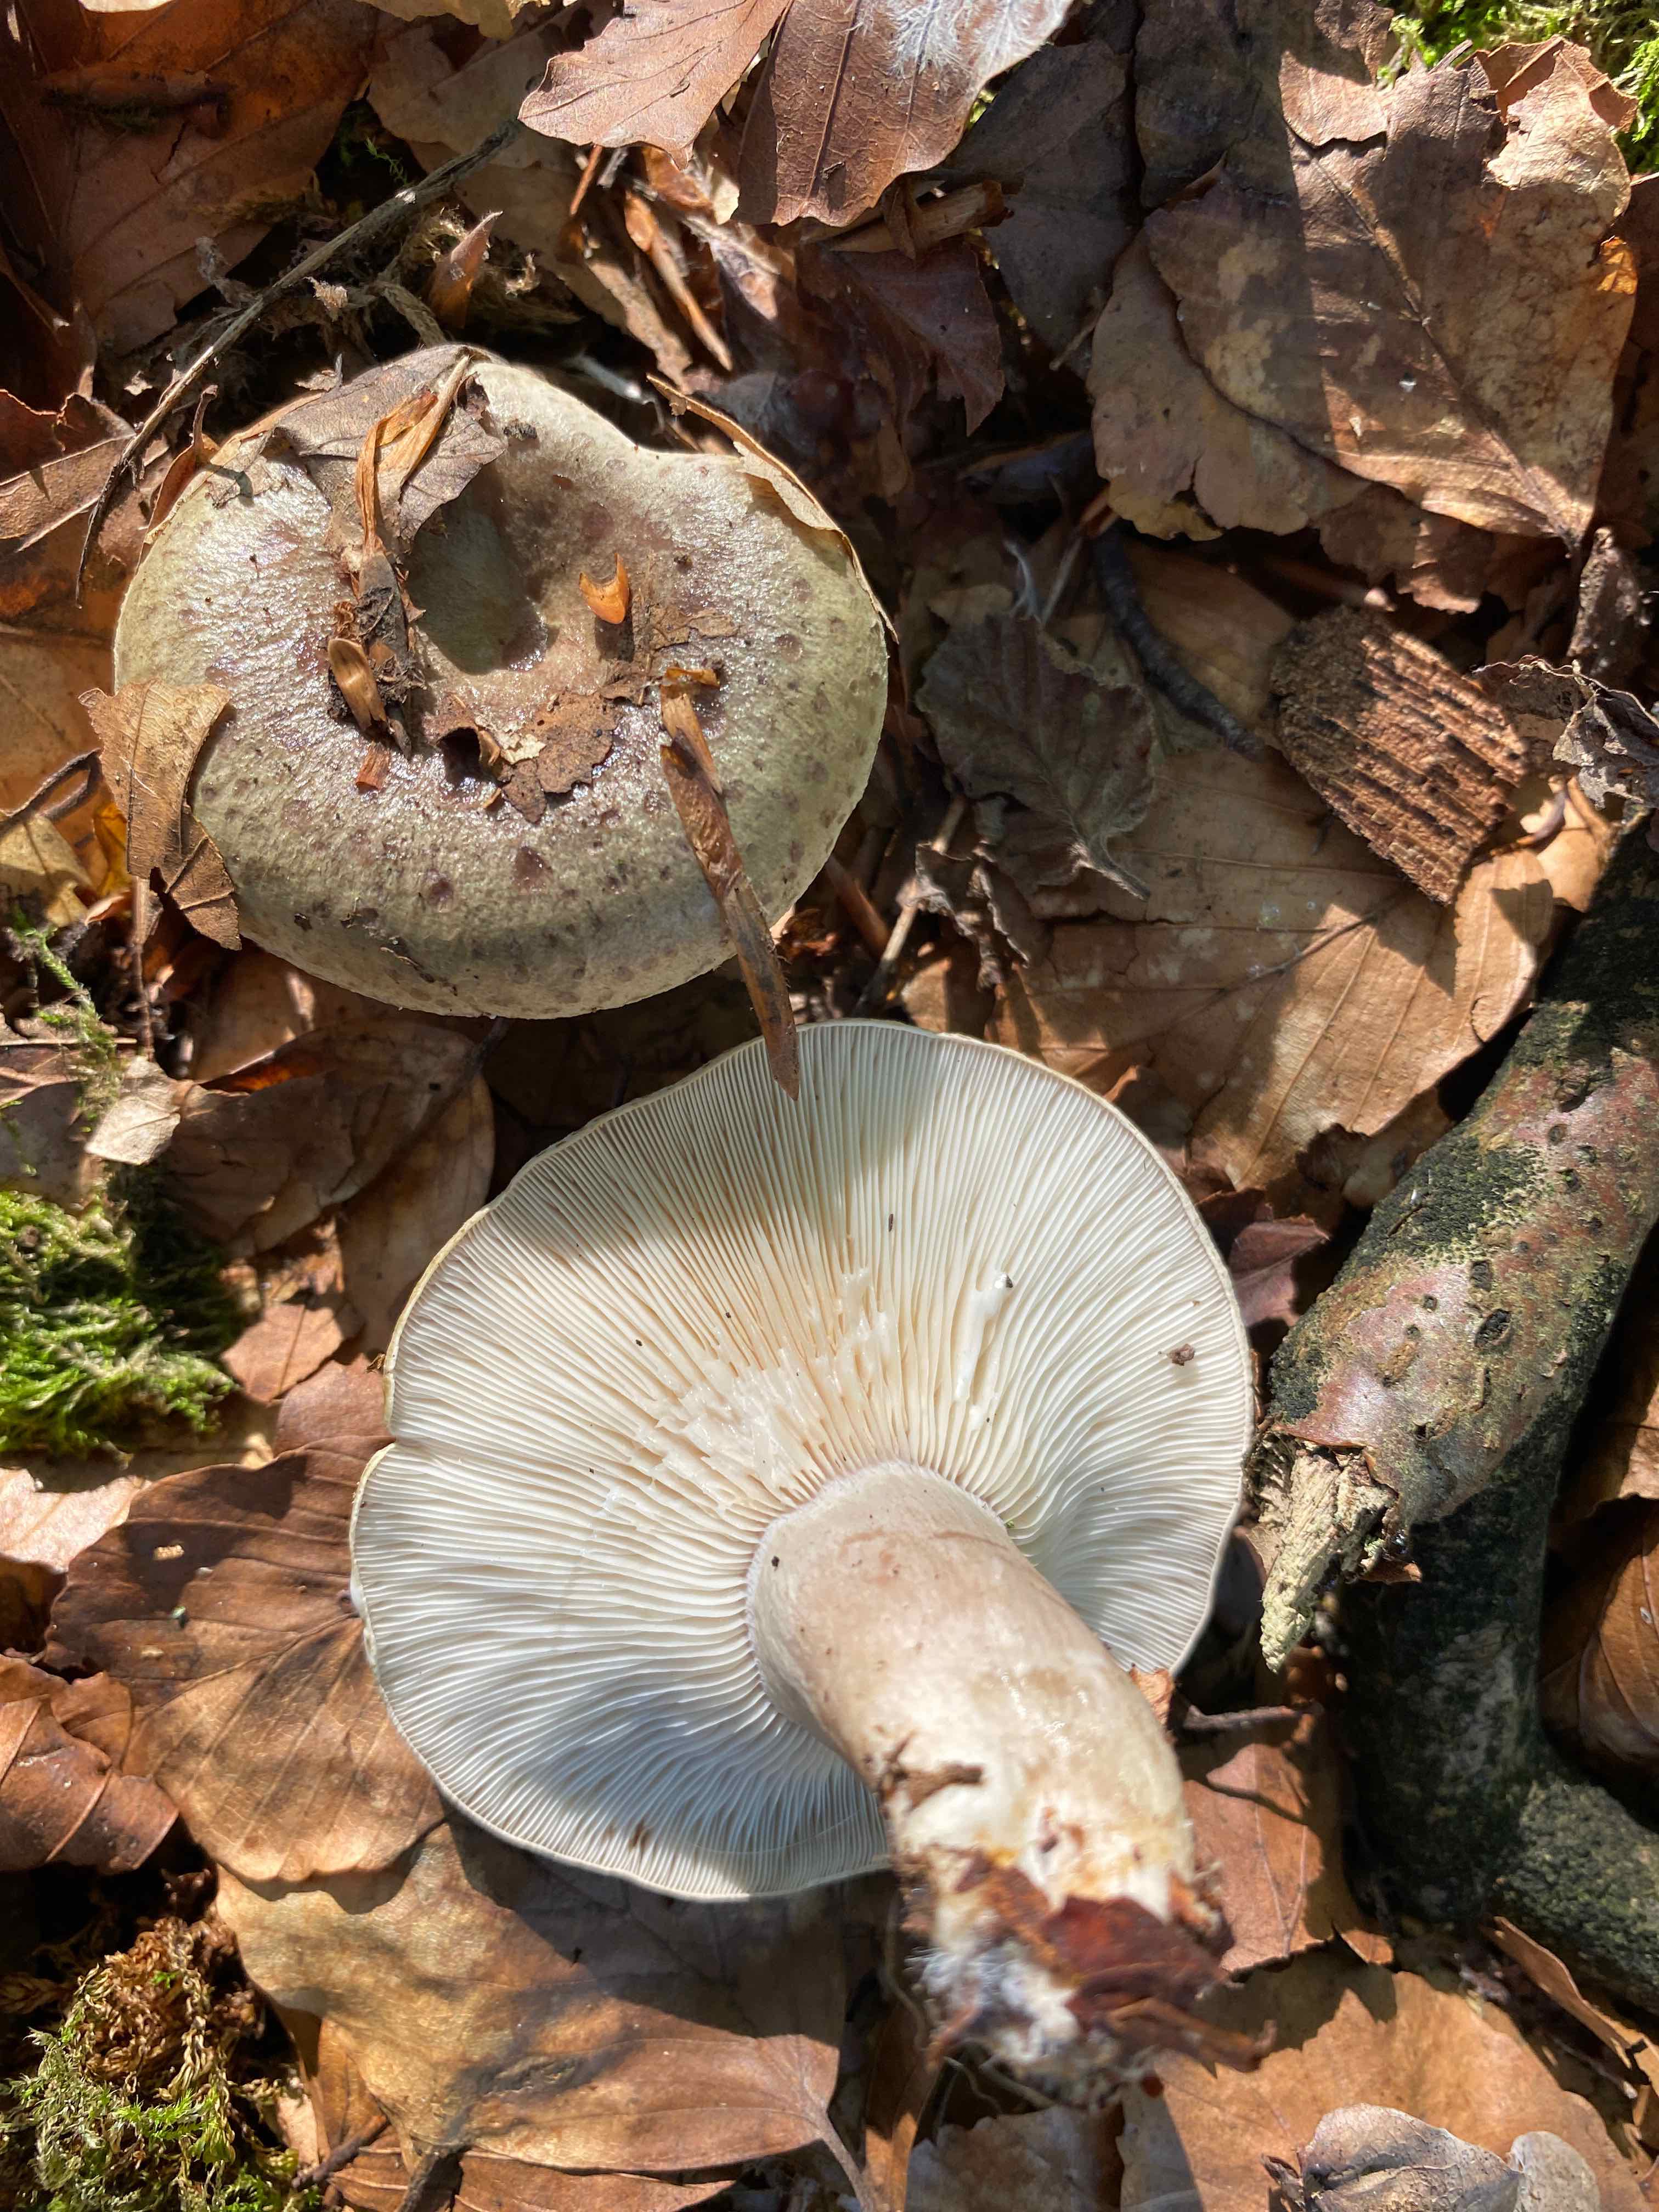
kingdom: Fungi
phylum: Basidiomycota
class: Agaricomycetes
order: Russulales
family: Russulaceae
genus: Lactarius
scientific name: Lactarius blennius
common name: dråbeplettet mælkehat
